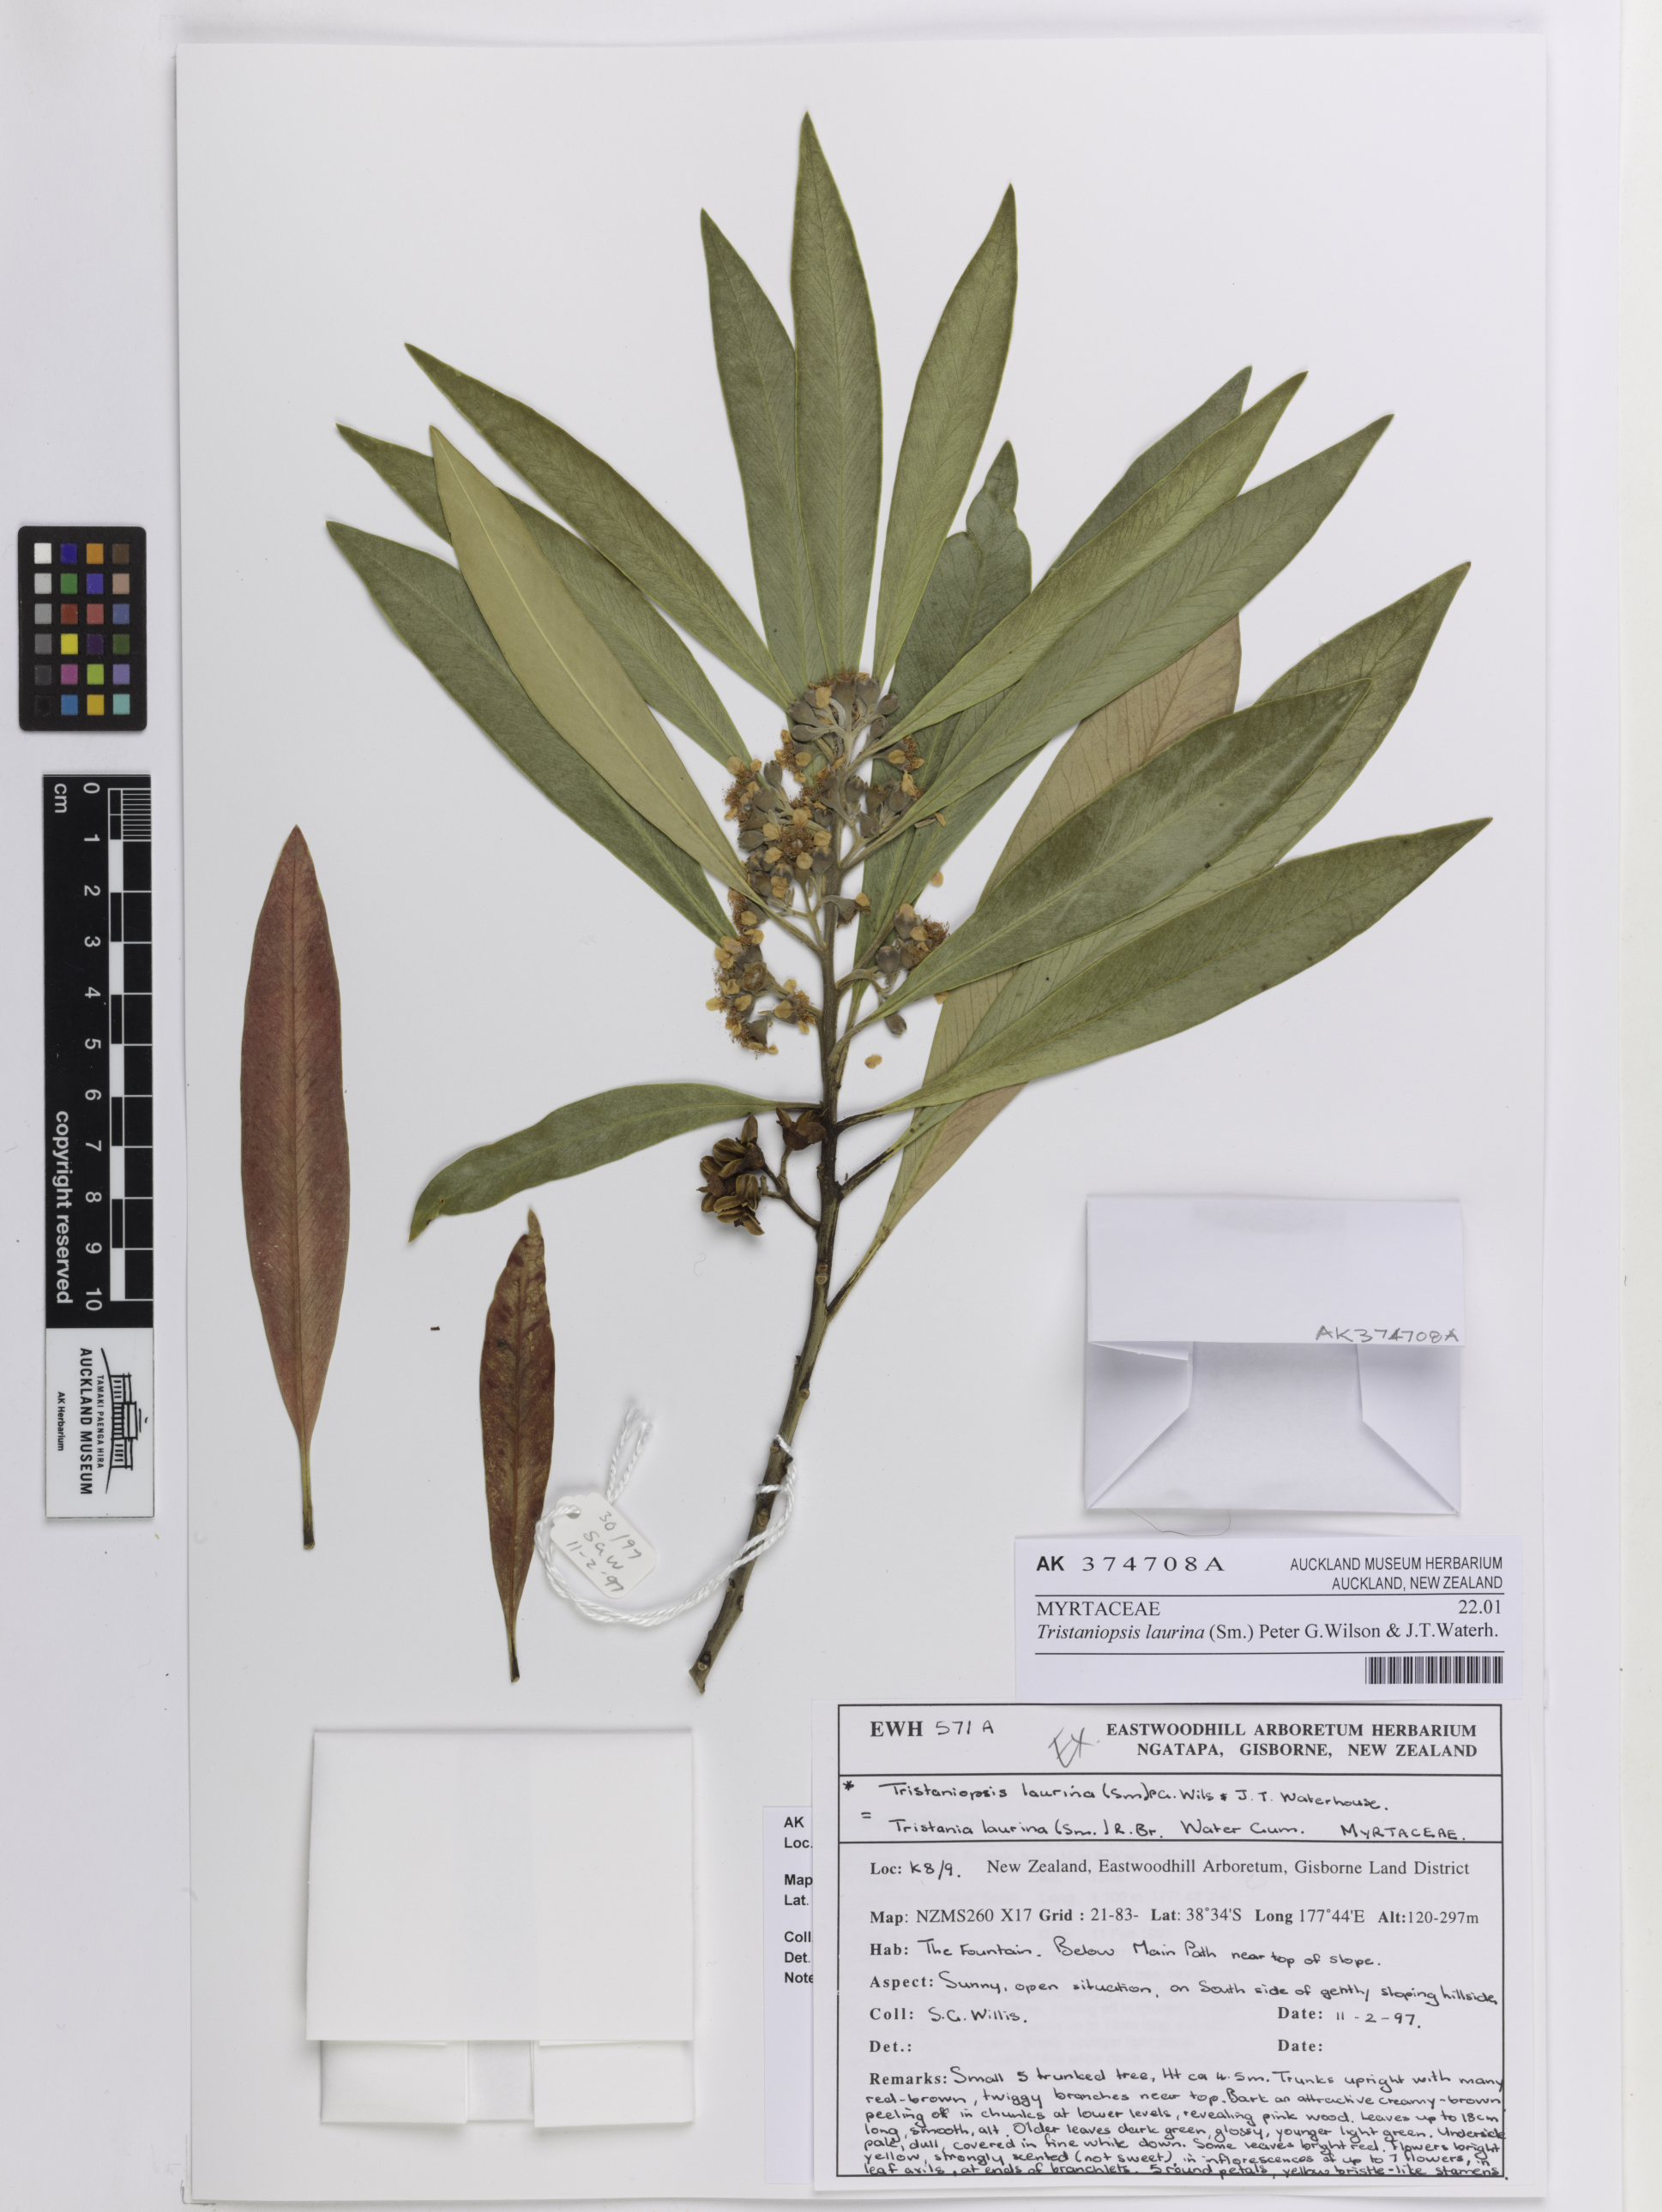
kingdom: Plantae
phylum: Tracheophyta
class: Magnoliopsida
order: Myrtales
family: Myrtaceae
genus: Tristaniopsis
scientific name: Tristaniopsis laurina
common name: Water-gum
